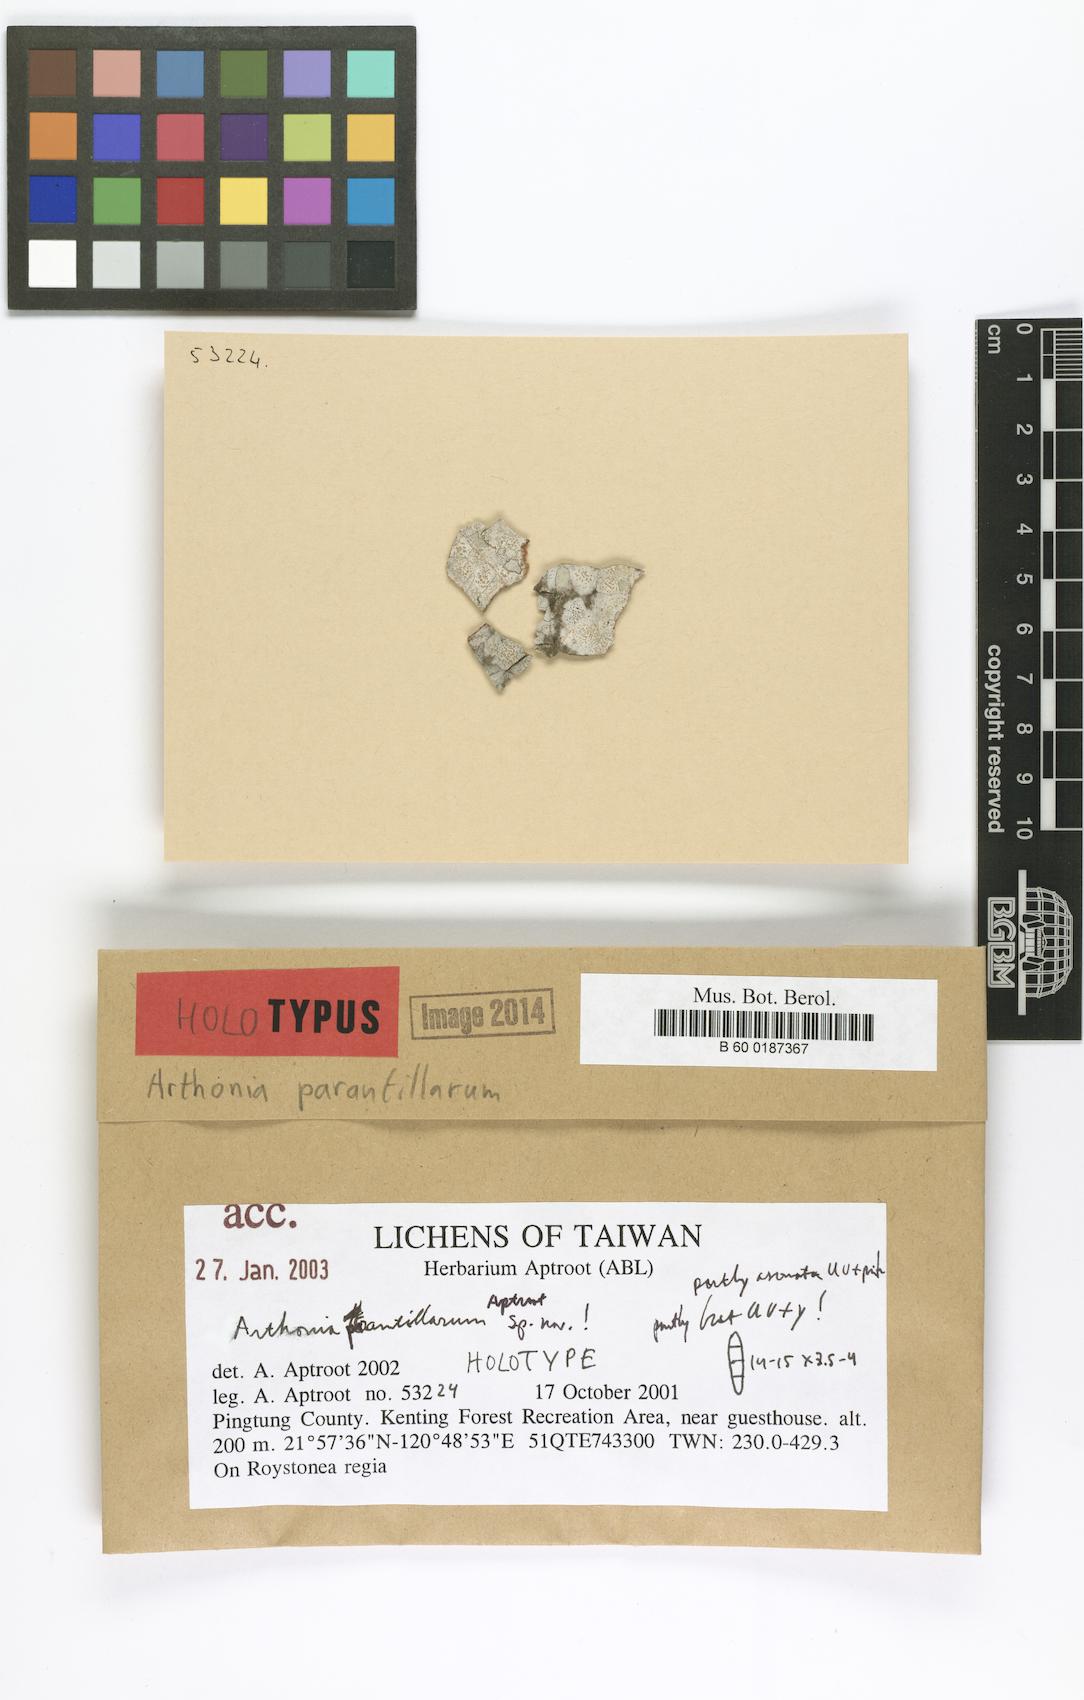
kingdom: Fungi
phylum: Ascomycota
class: Arthoniomycetes
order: Arthoniales
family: Arthoniaceae
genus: Arthonia
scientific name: Arthonia parantillarum
